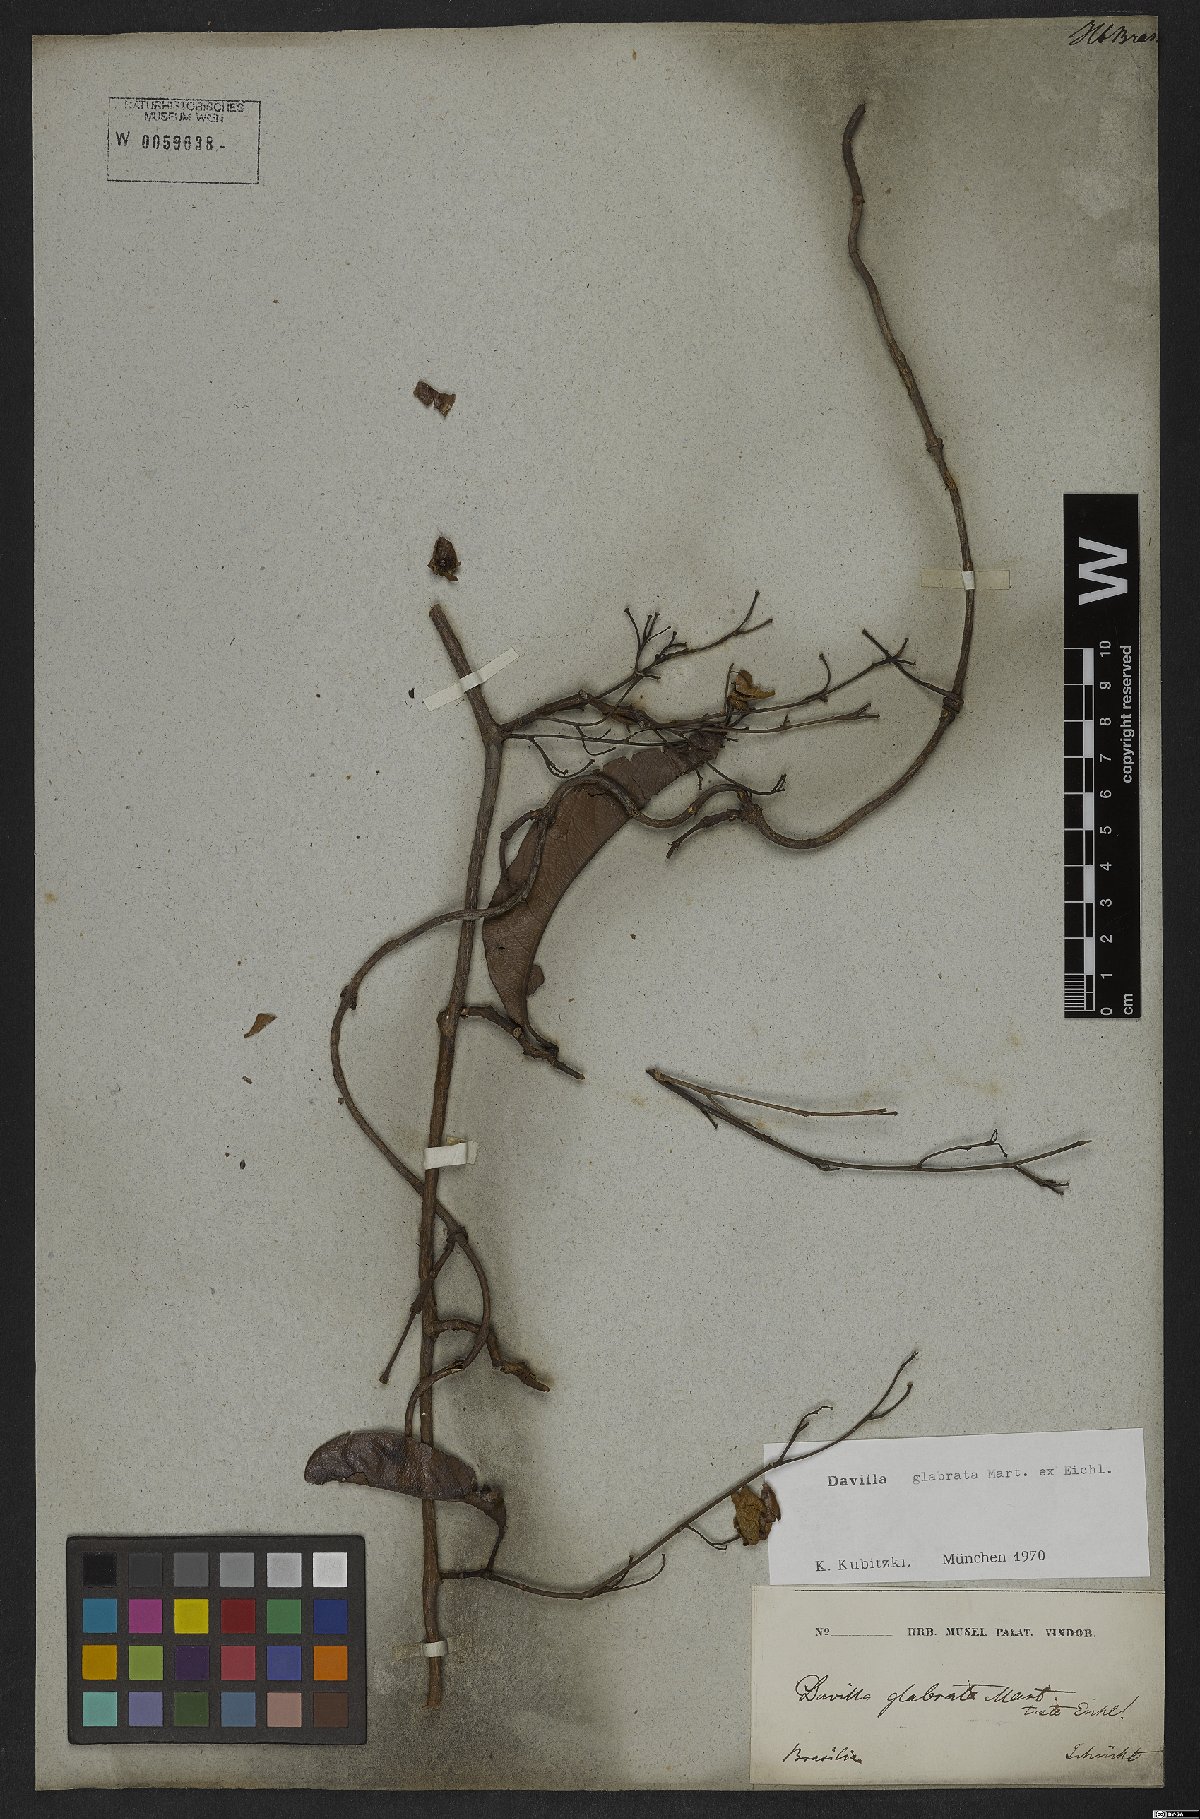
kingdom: Plantae
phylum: Tracheophyta
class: Magnoliopsida
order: Dilleniales
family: Dilleniaceae
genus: Davilla
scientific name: Davilla glabrata
